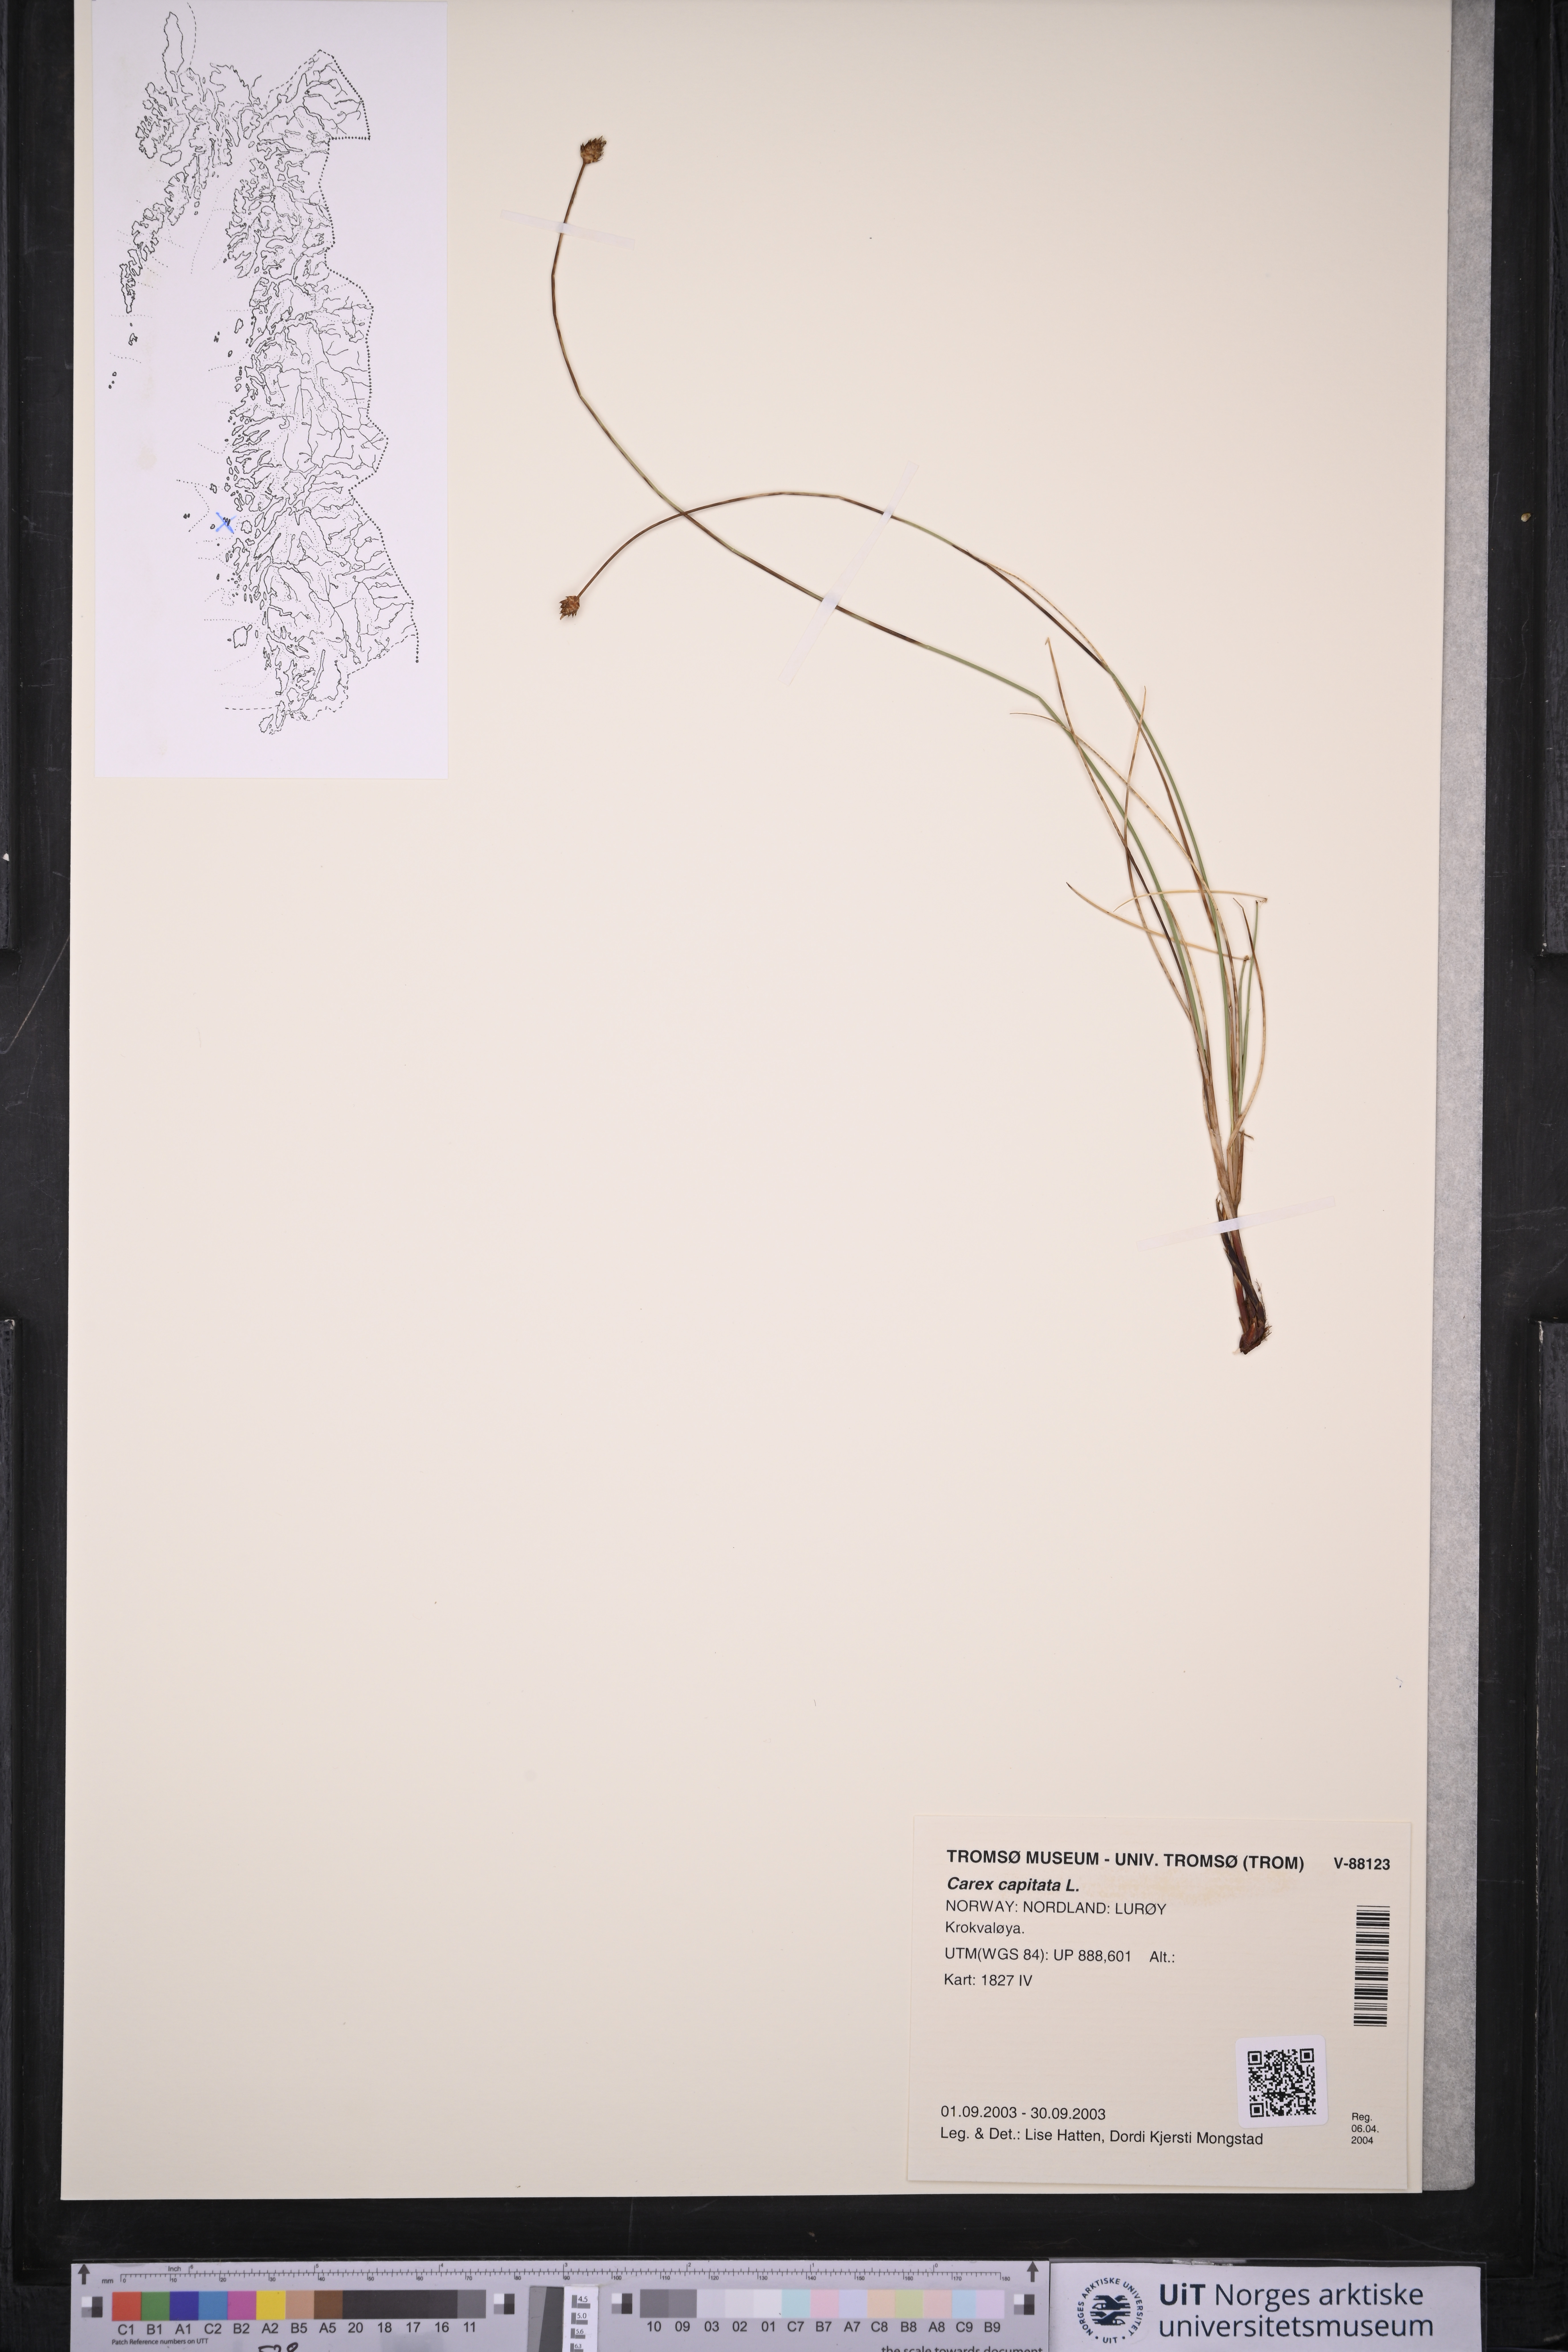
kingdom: Plantae
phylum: Tracheophyta
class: Liliopsida
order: Poales
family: Cyperaceae
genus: Carex
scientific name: Carex capitata
